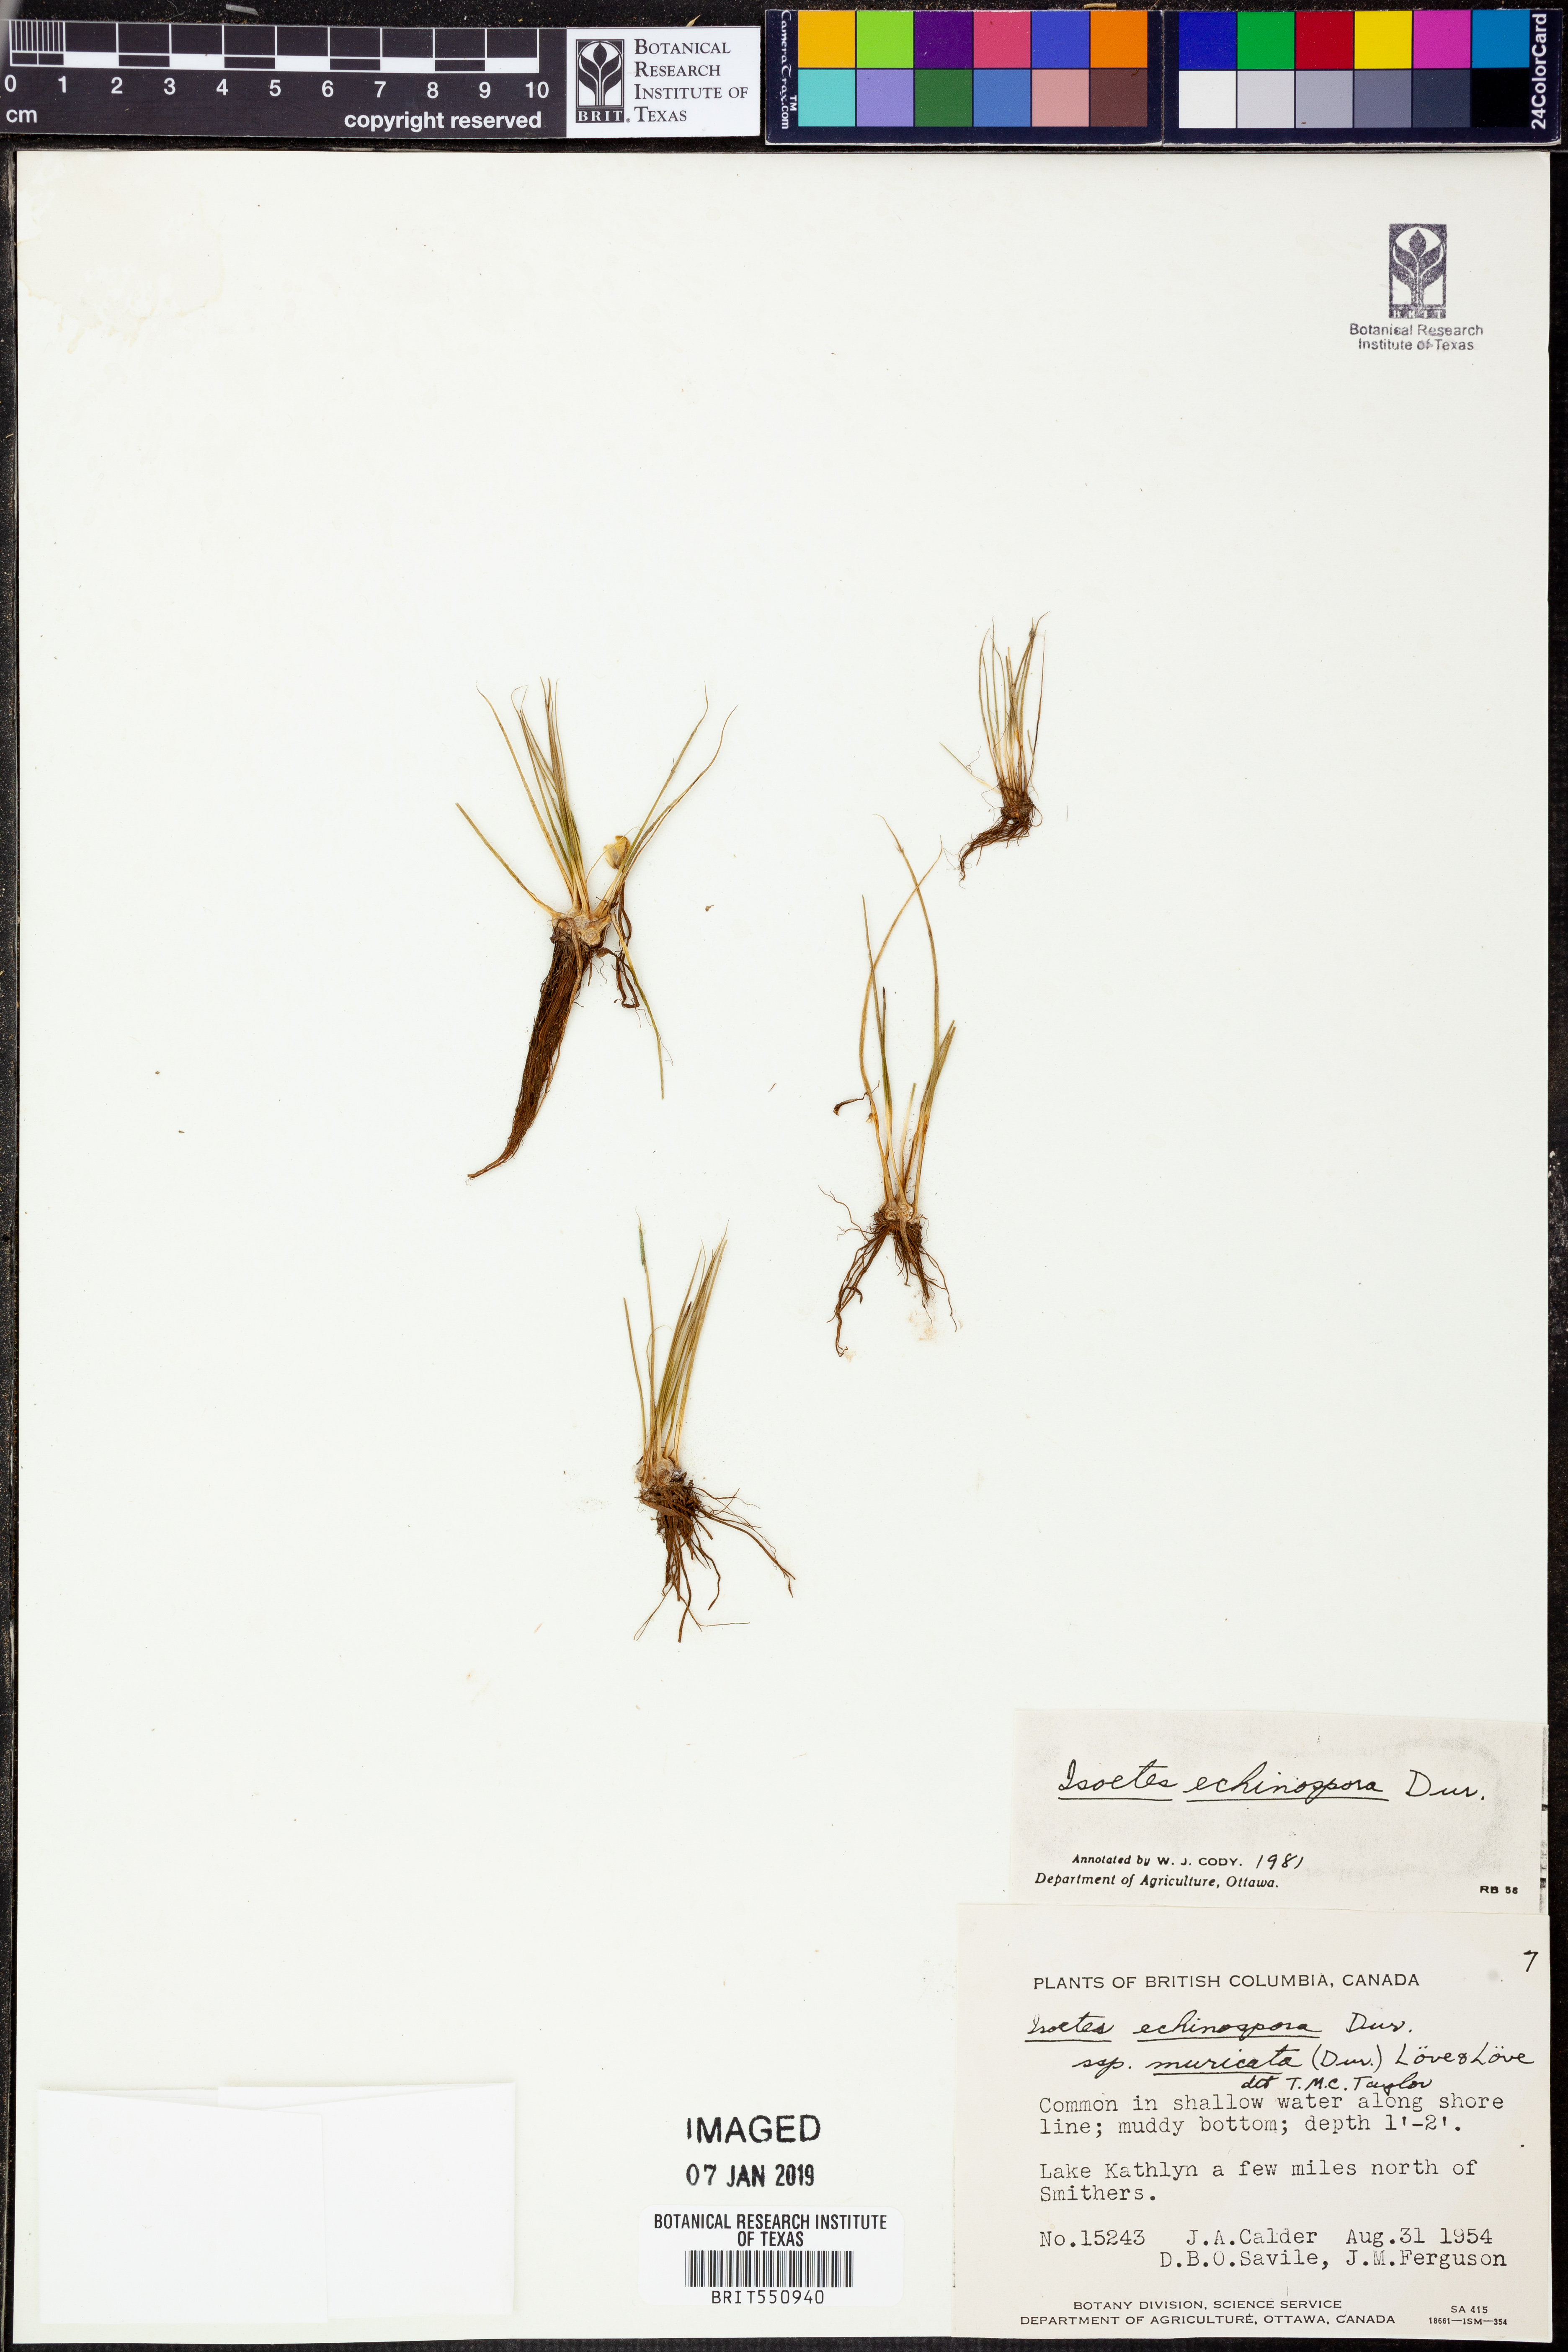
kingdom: Plantae
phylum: Tracheophyta
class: Lycopodiopsida
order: Isoetales
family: Isoetaceae
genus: Isoetes
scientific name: Isoetes echinospora
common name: Spring quillwort
